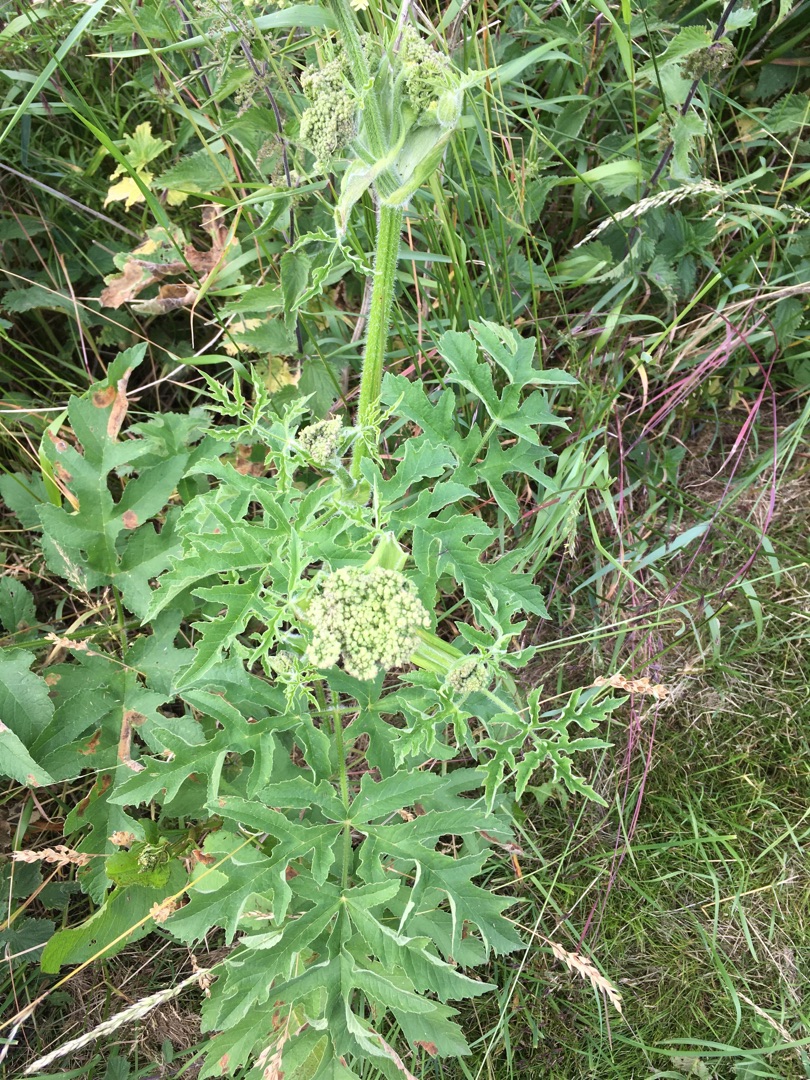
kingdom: Plantae
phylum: Tracheophyta
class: Magnoliopsida
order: Apiales
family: Apiaceae
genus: Heracleum
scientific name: Heracleum sphondylium
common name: Almindelig bjørneklo
